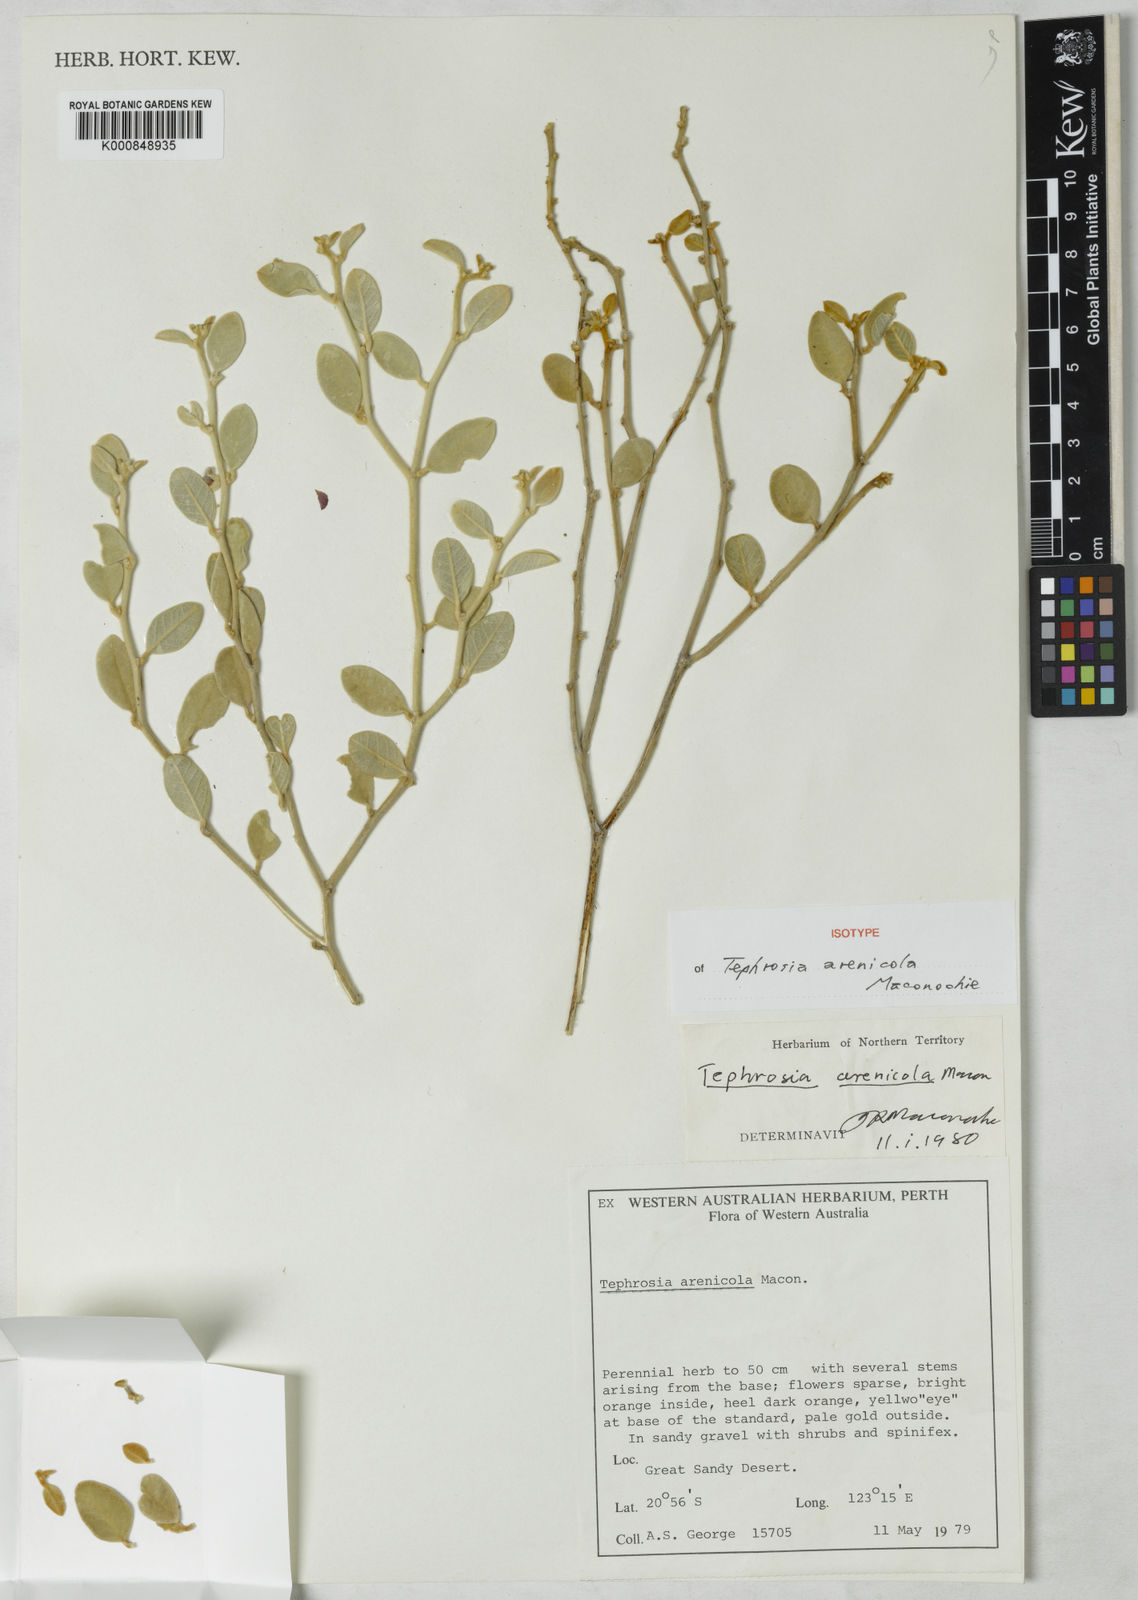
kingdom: Plantae
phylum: Tracheophyta
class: Magnoliopsida
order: Fabales
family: Fabaceae
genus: Tephrosia
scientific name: Tephrosia arenicola
